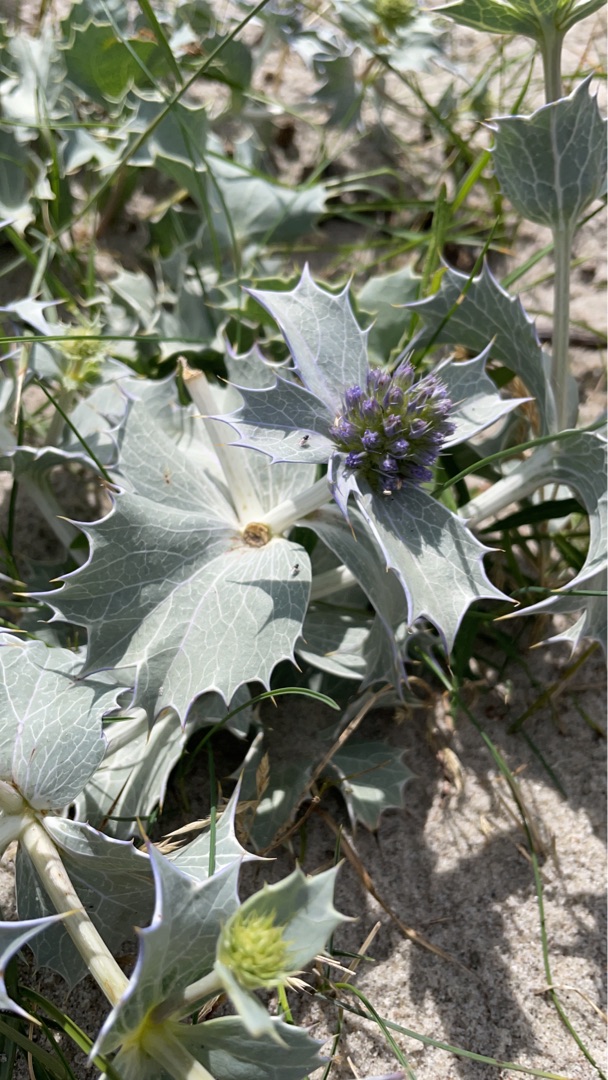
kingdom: Plantae
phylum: Tracheophyta
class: Magnoliopsida
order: Apiales
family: Apiaceae
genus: Eryngium
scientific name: Eryngium maritimum
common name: Strand-mandstro
